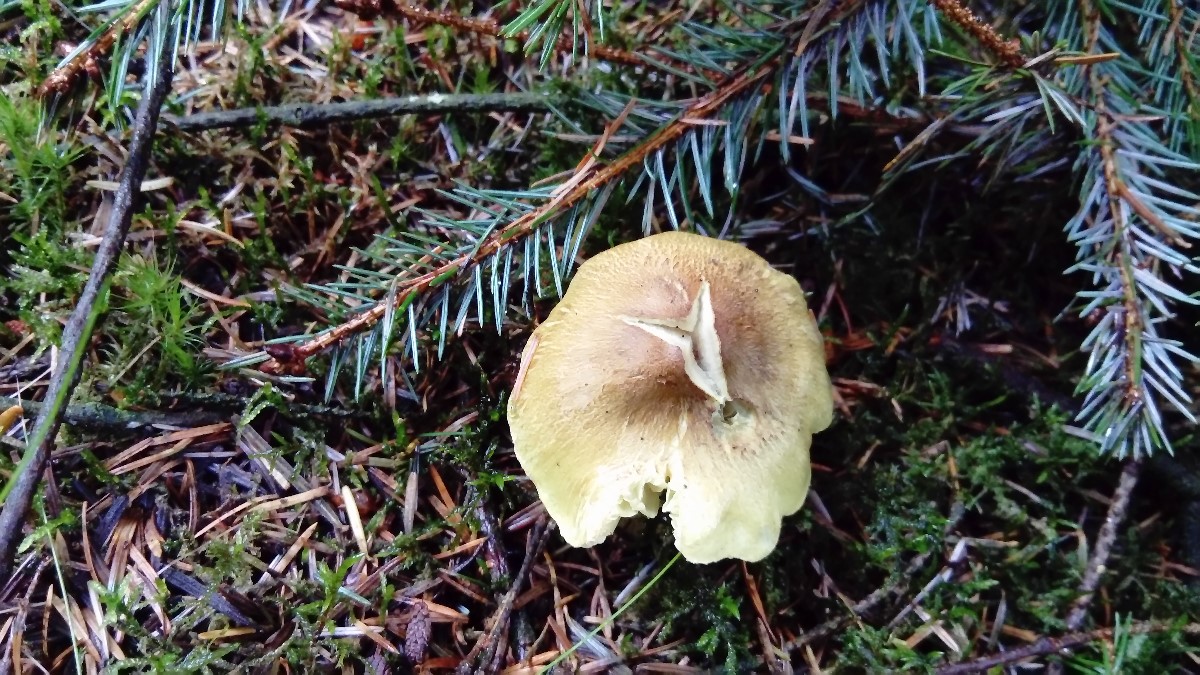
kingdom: Fungi
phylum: Basidiomycota
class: Agaricomycetes
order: Agaricales
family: Tricholomataceae
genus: Tricholoma
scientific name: Tricholoma aestuans
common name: kegle-ridderhat
